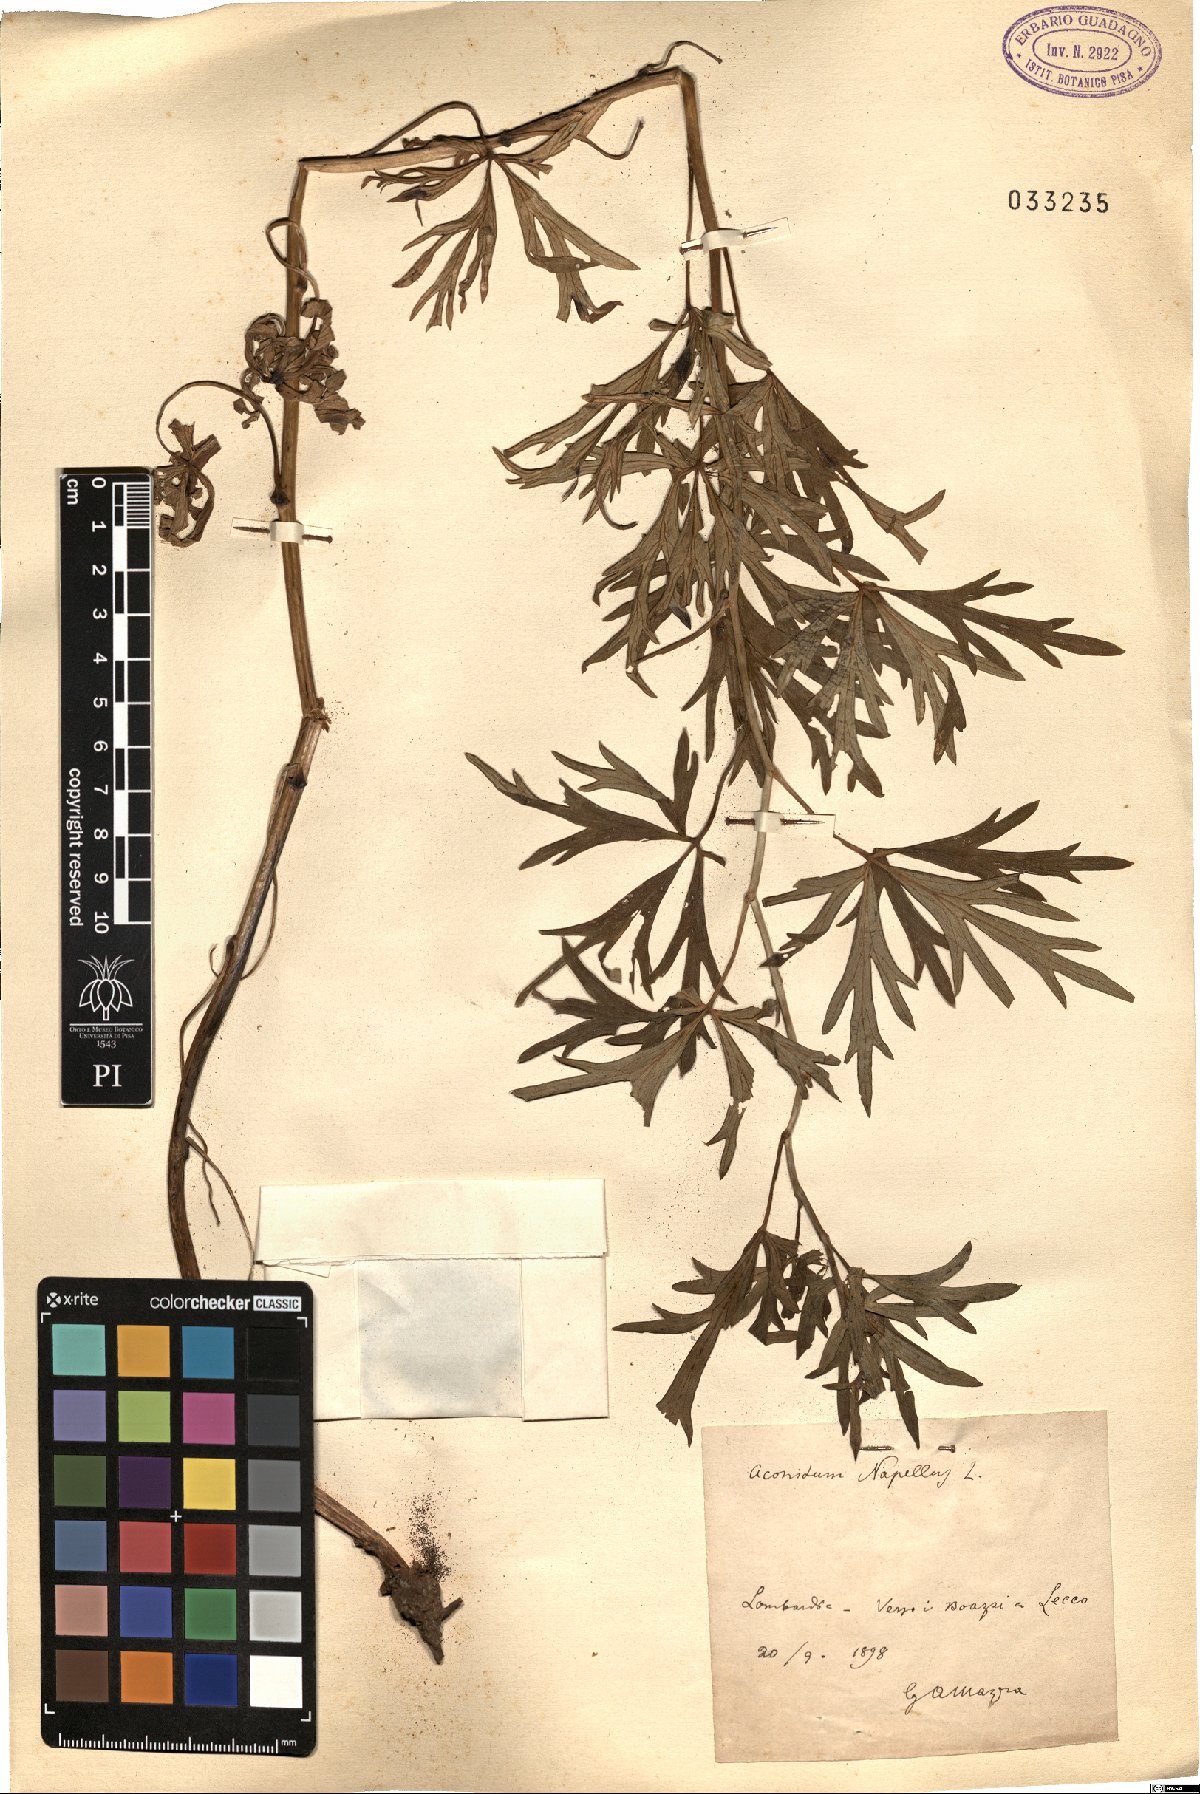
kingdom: Plantae
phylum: Tracheophyta
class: Magnoliopsida
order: Ranunculales
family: Ranunculaceae
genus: Aconitum
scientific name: Aconitum napellus
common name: Garden monkshood
